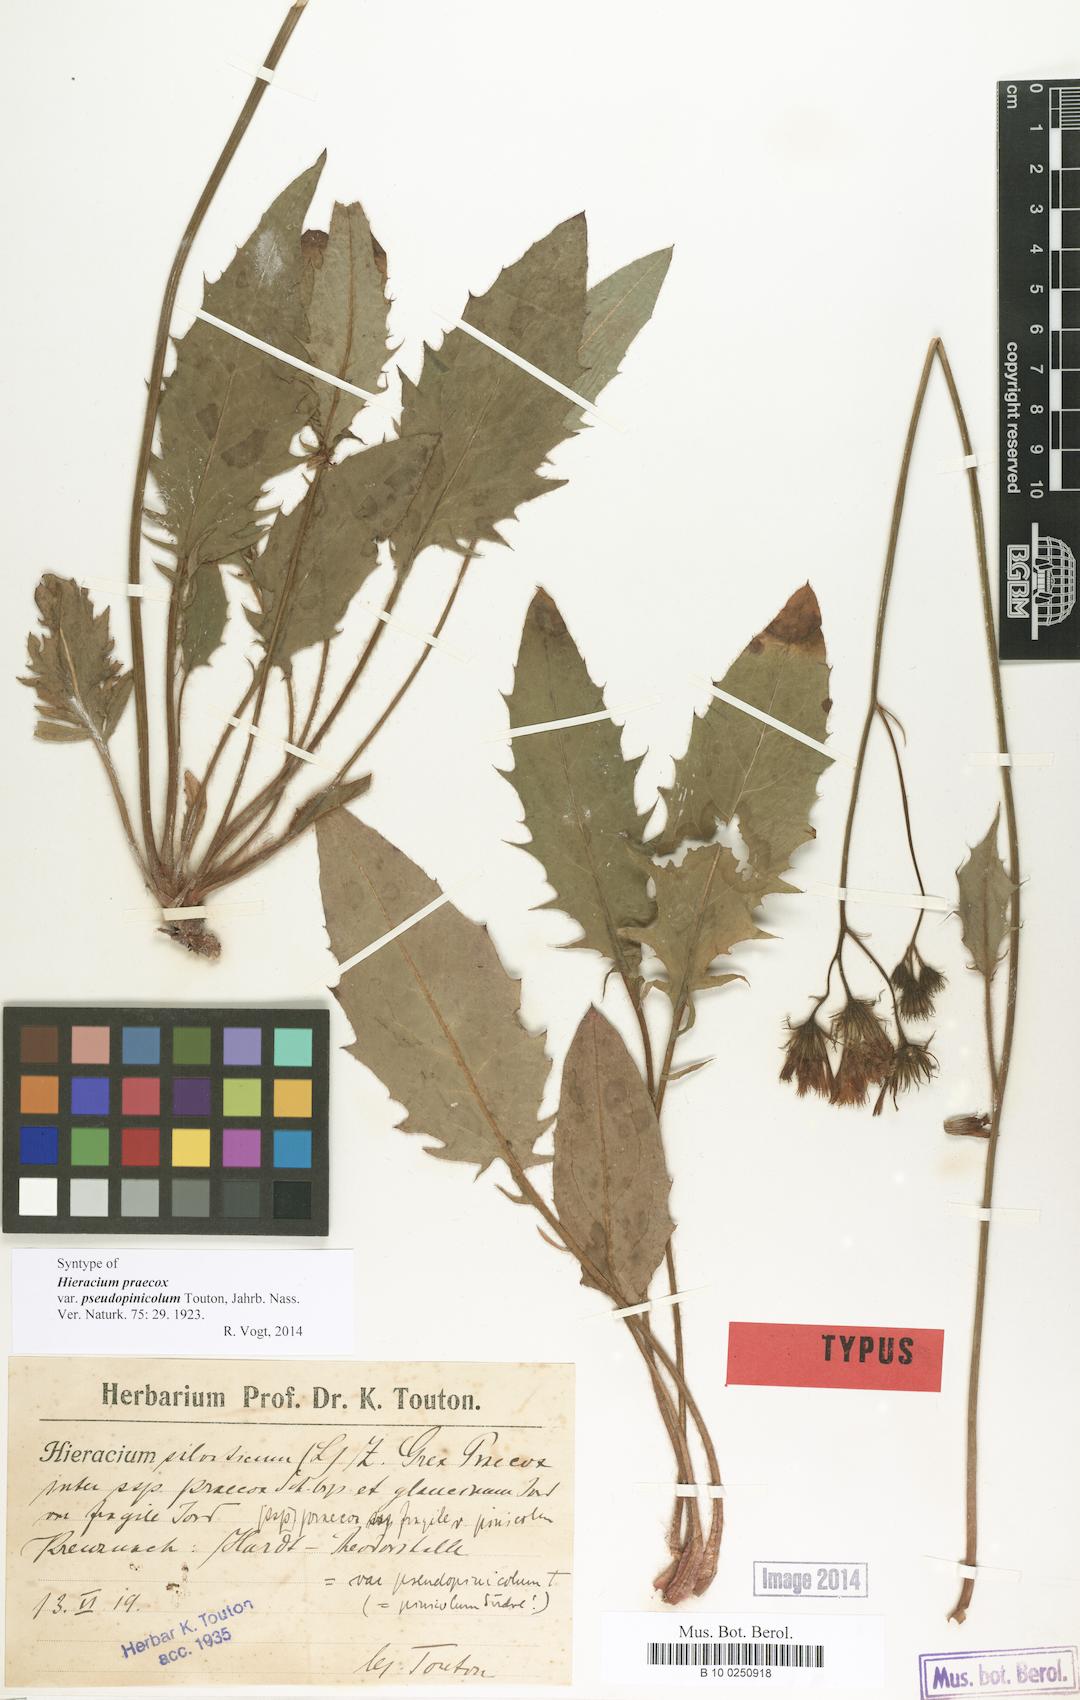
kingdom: Plantae
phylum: Tracheophyta
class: Magnoliopsida
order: Asterales
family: Asteraceae
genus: Hieracium
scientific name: Hieracium praecox
